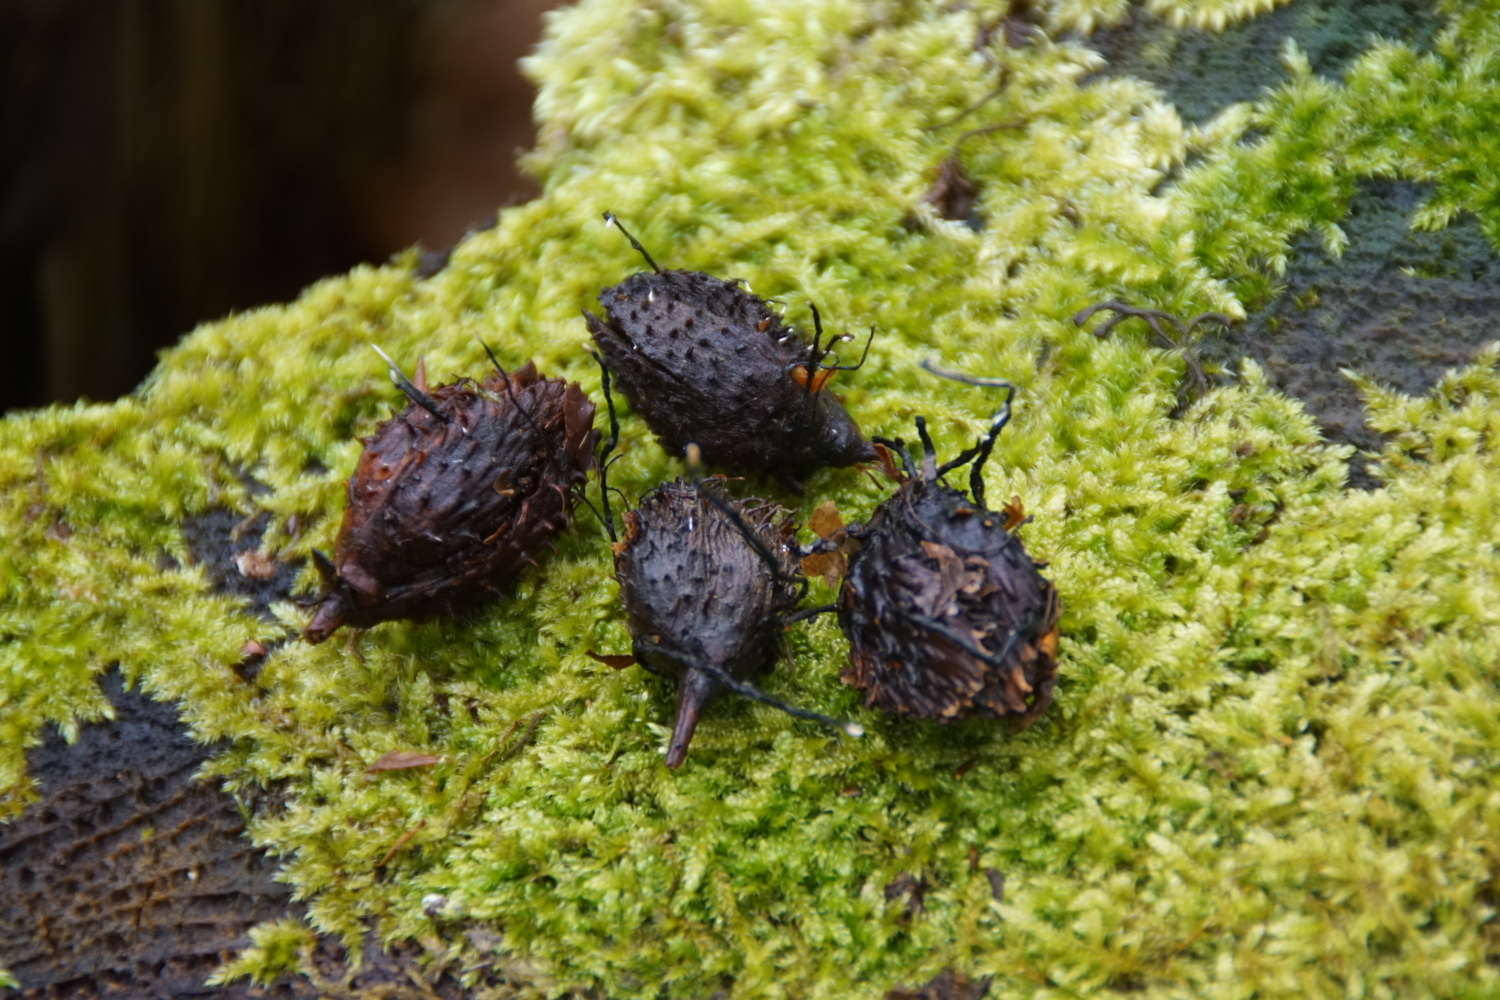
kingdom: Fungi
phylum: Ascomycota
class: Sordariomycetes
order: Xylariales
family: Xylariaceae
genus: Xylaria
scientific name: Xylaria carpophila
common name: bogskål-stødsvamp
